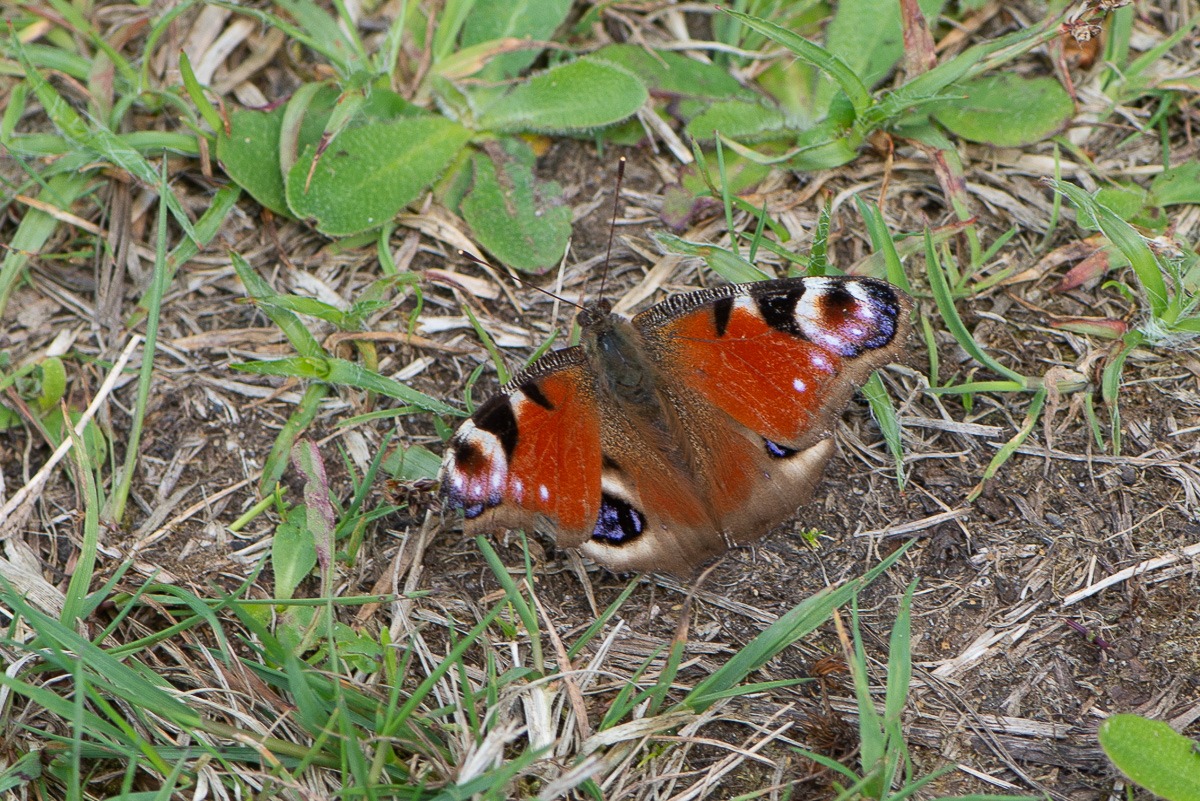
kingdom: Animalia
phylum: Arthropoda
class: Insecta
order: Lepidoptera
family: Nymphalidae
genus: Aglais
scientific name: Aglais io
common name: Dagpåfugleøje
